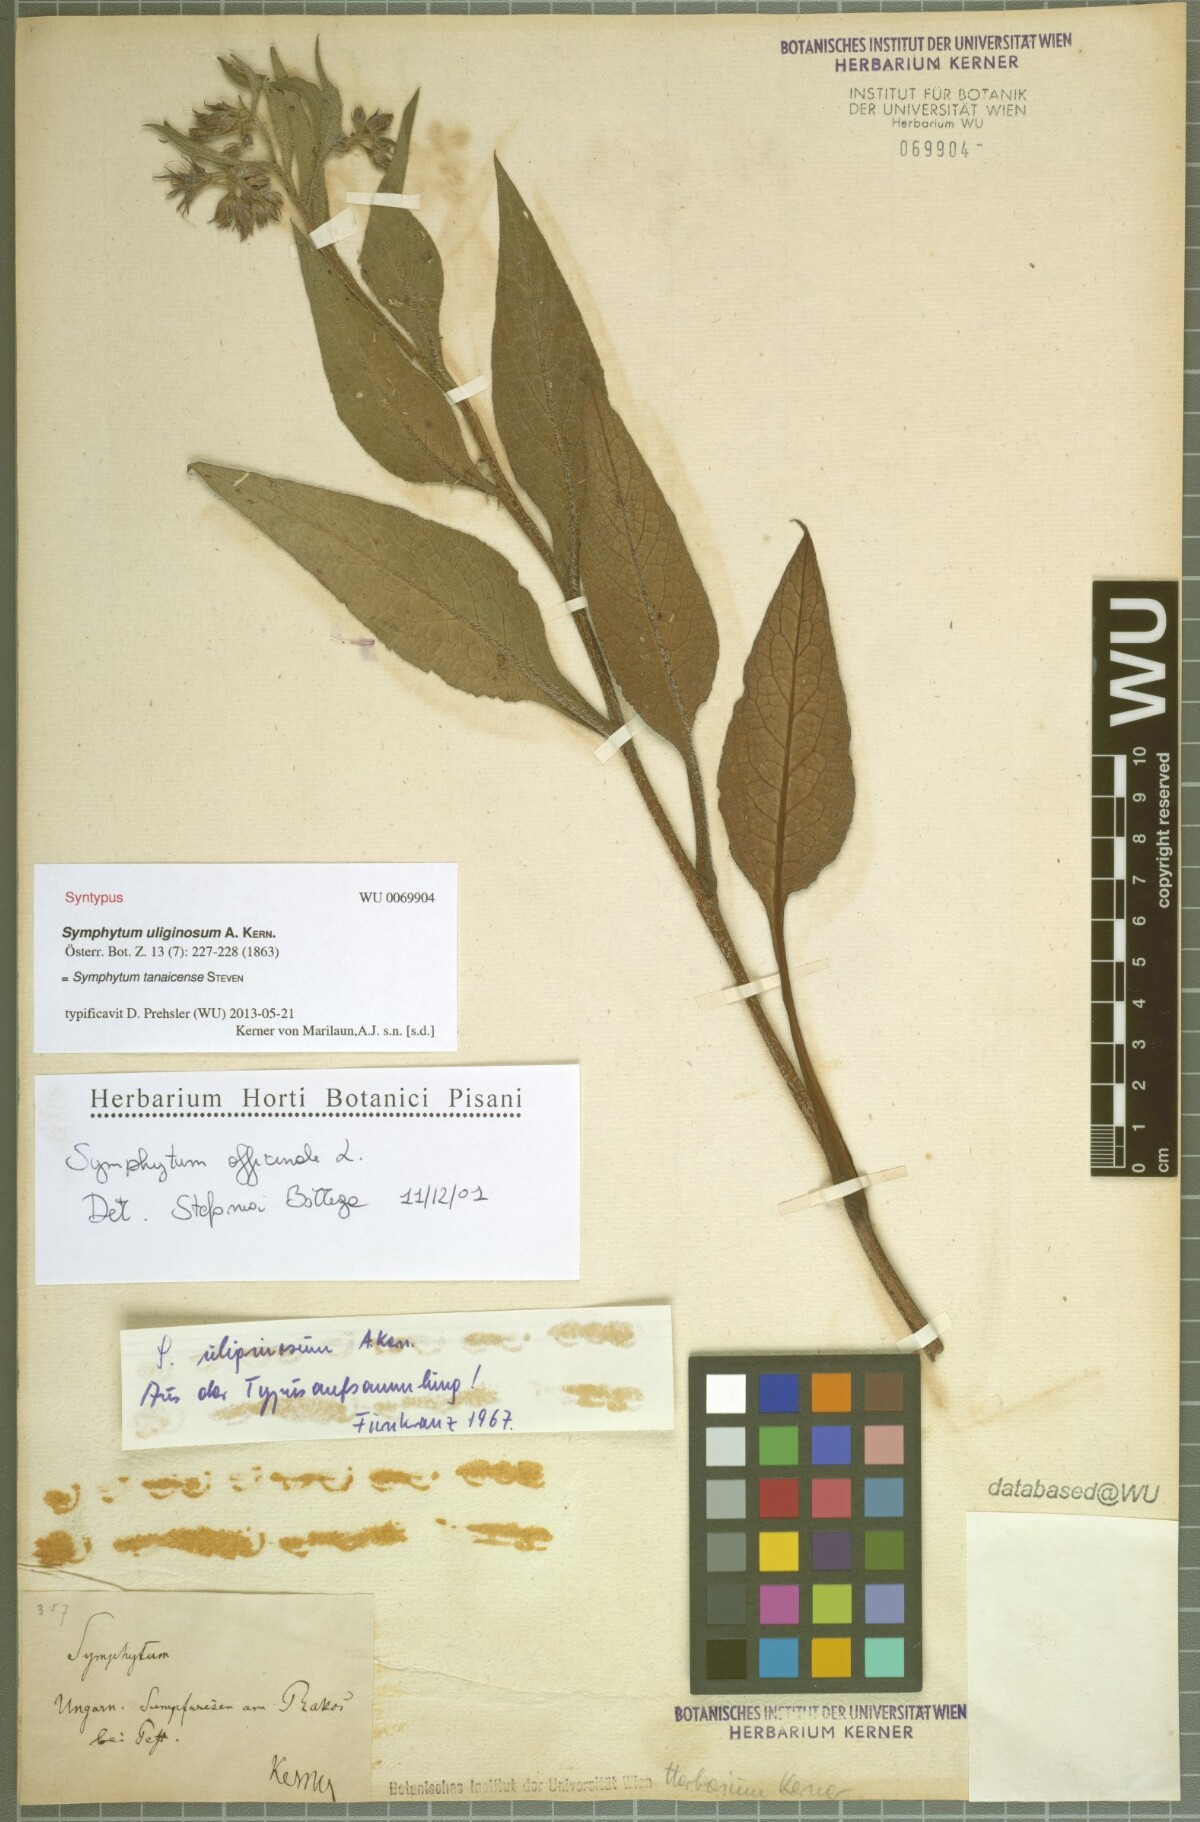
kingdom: Plantae
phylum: Tracheophyta
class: Magnoliopsida
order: Boraginales
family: Boraginaceae
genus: Symphytum
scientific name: Symphytum tanaicense
